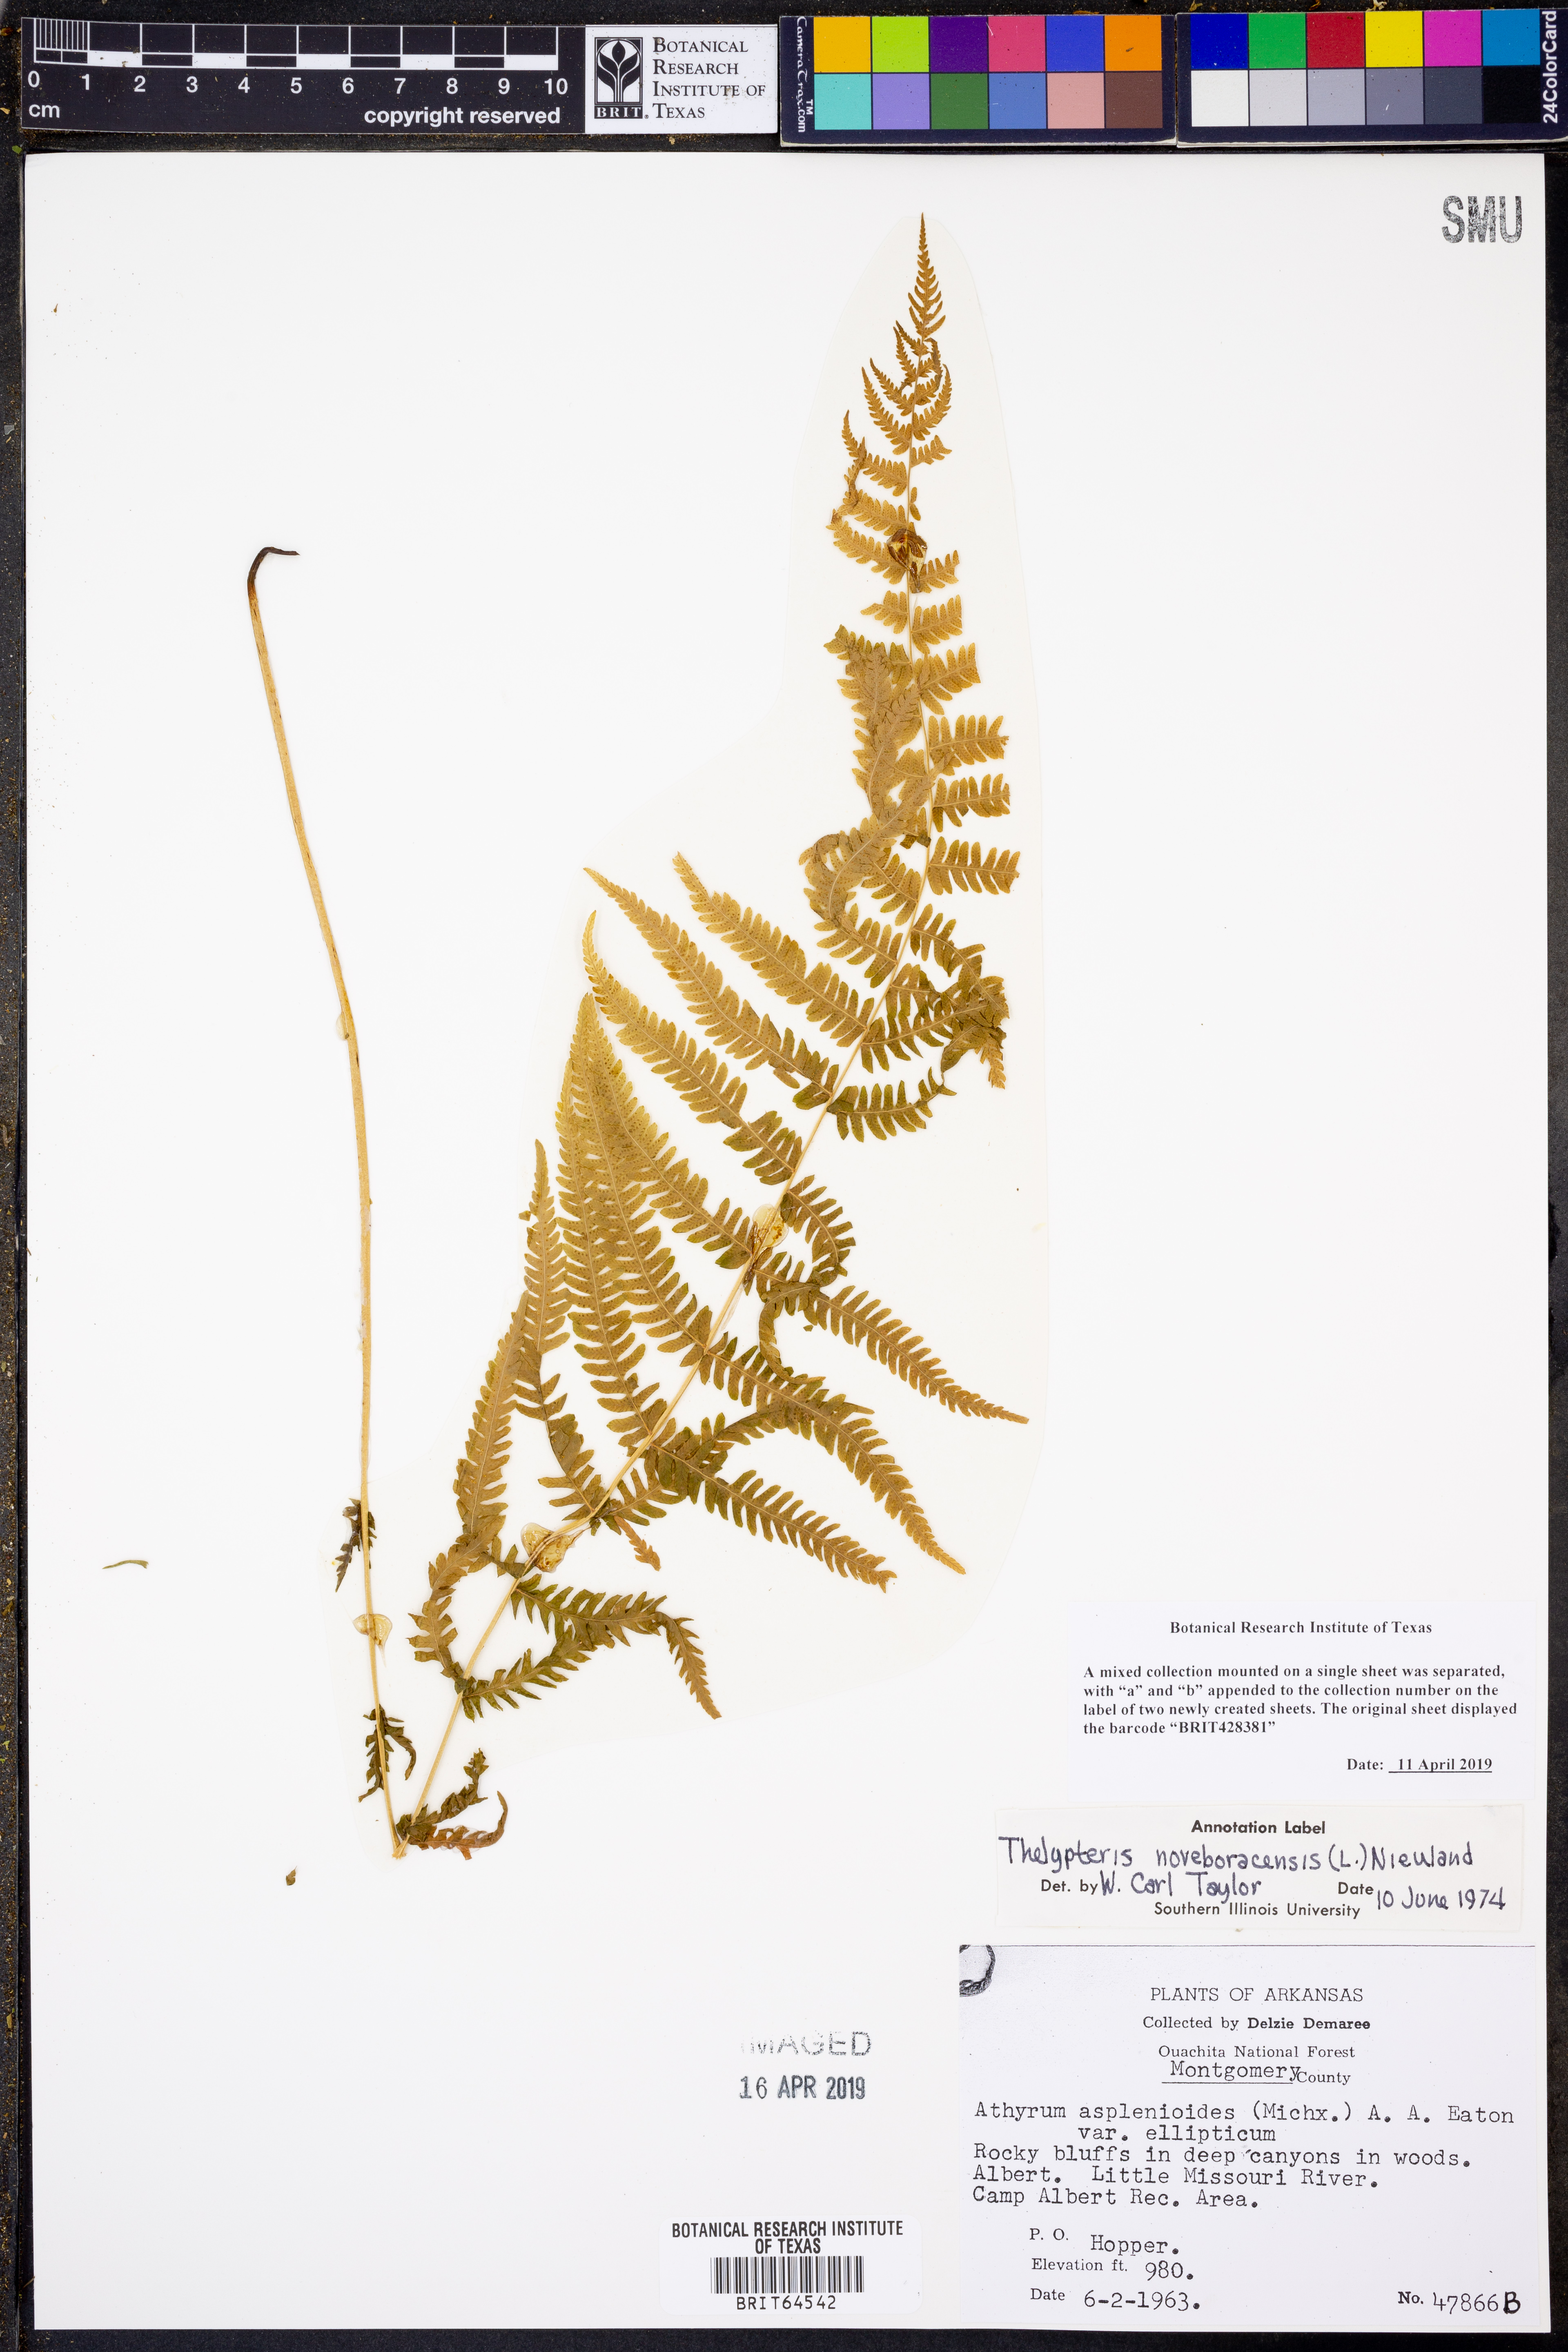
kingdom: Plantae
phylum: Tracheophyta
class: Polypodiopsida
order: Polypodiales
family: Thelypteridaceae
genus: Amauropelta
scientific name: Amauropelta noveboracensis
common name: New york fern
